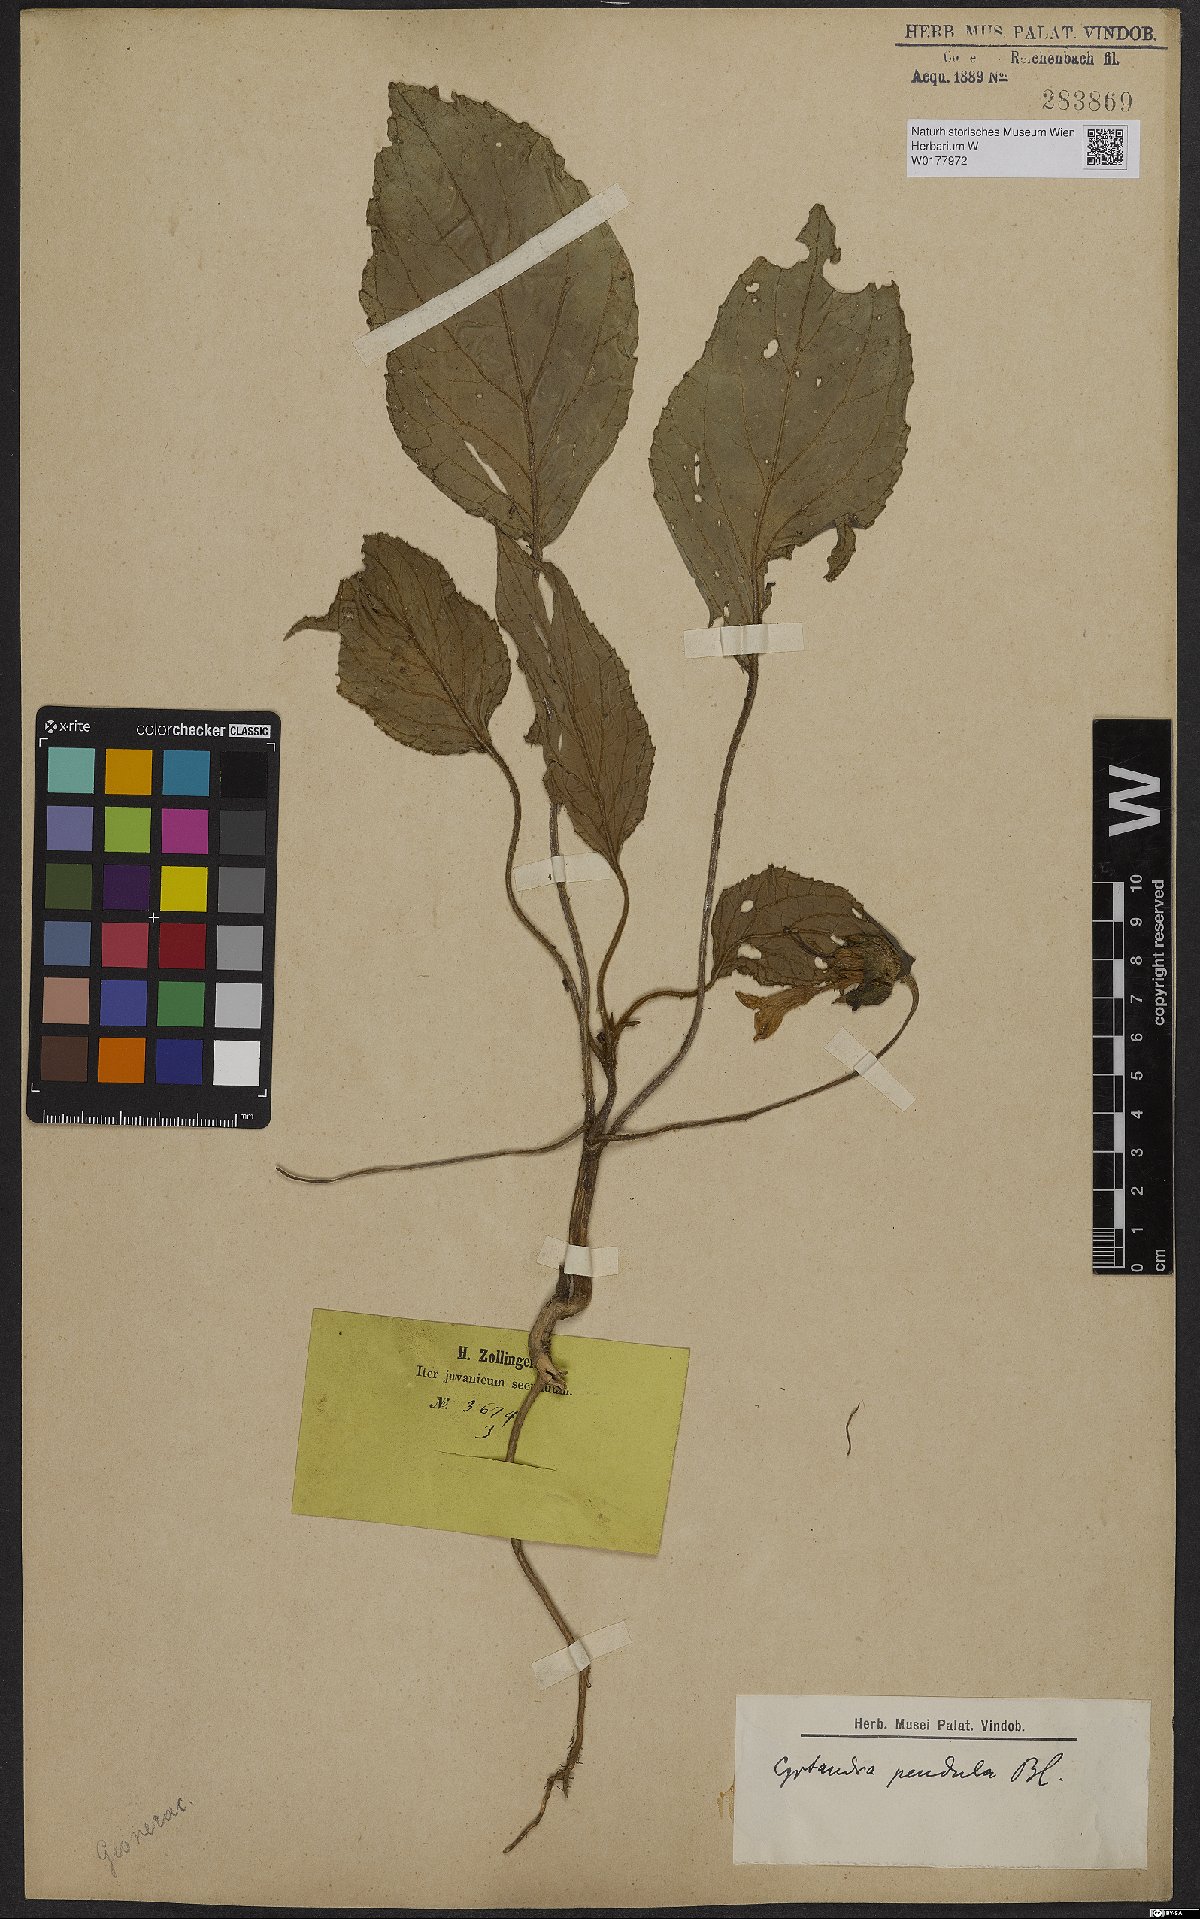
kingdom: Plantae
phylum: Tracheophyta
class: Magnoliopsida
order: Lamiales
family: Gesneriaceae
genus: Cyrtandra
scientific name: Cyrtandra pendula
